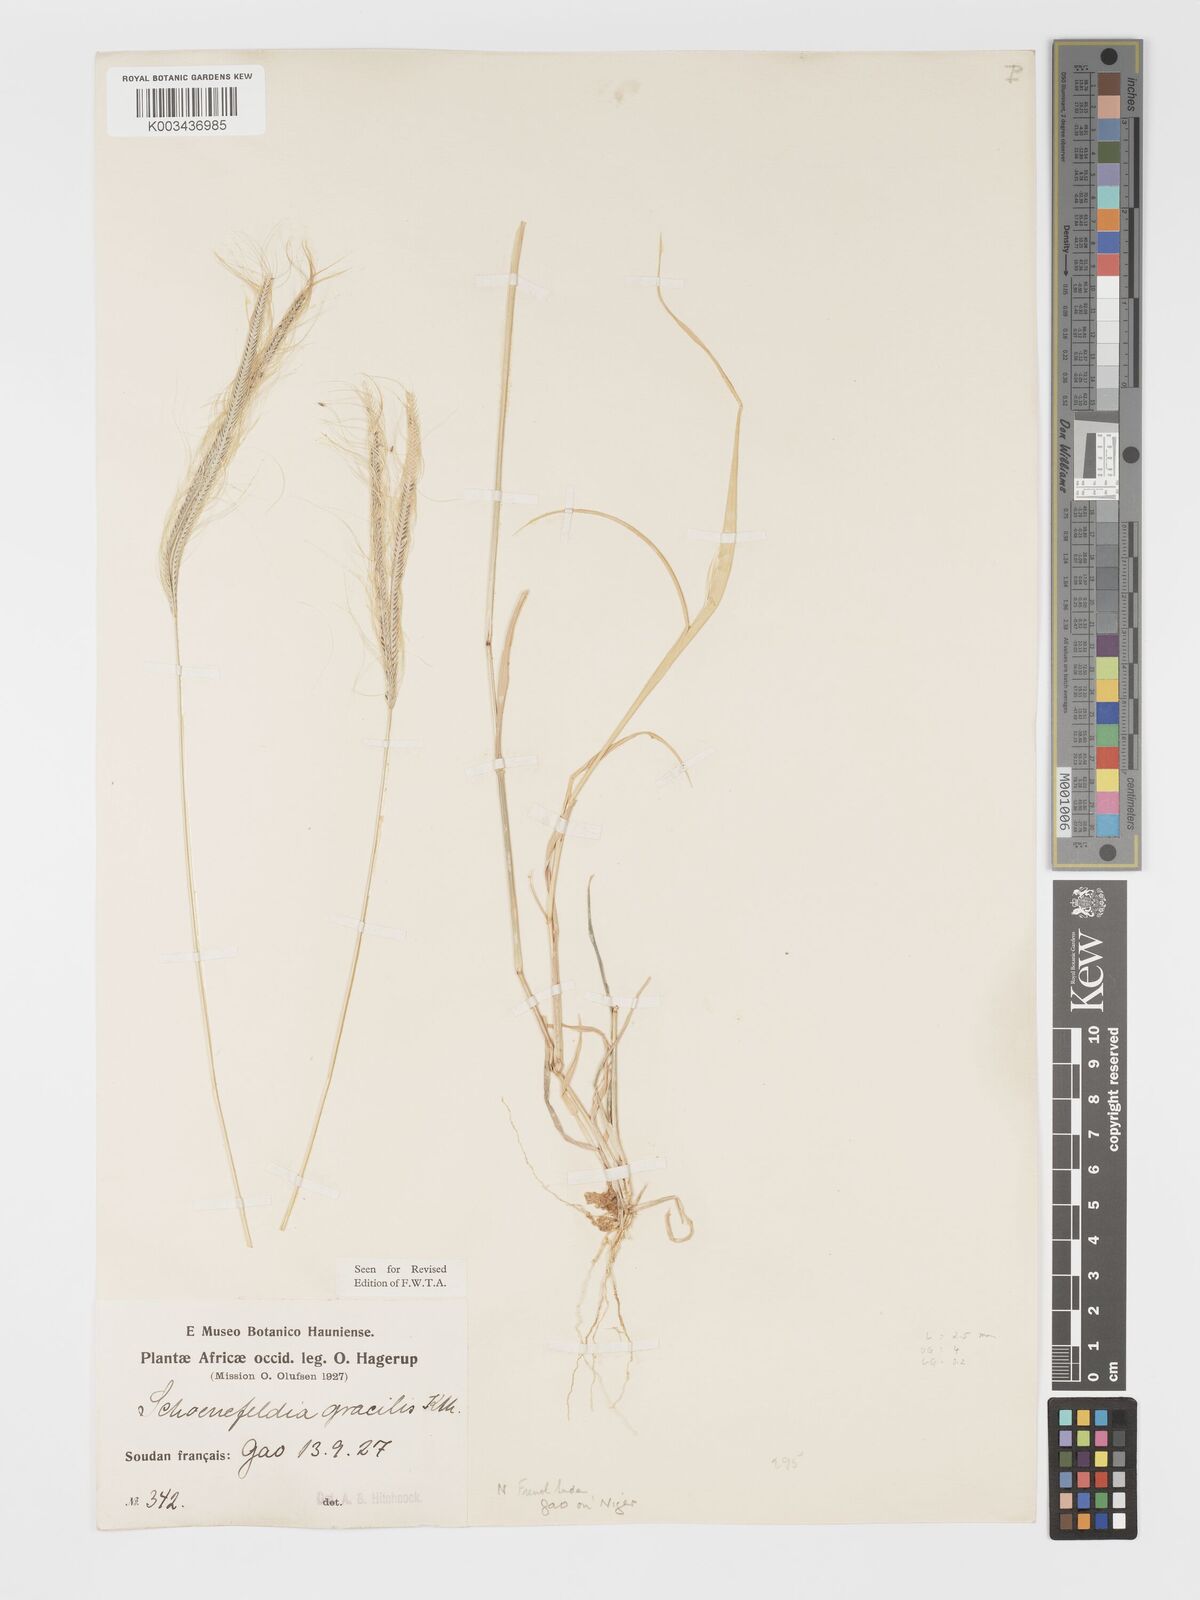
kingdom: Plantae
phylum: Tracheophyta
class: Liliopsida
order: Poales
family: Poaceae
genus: Schoenefeldia
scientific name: Schoenefeldia gracilis
